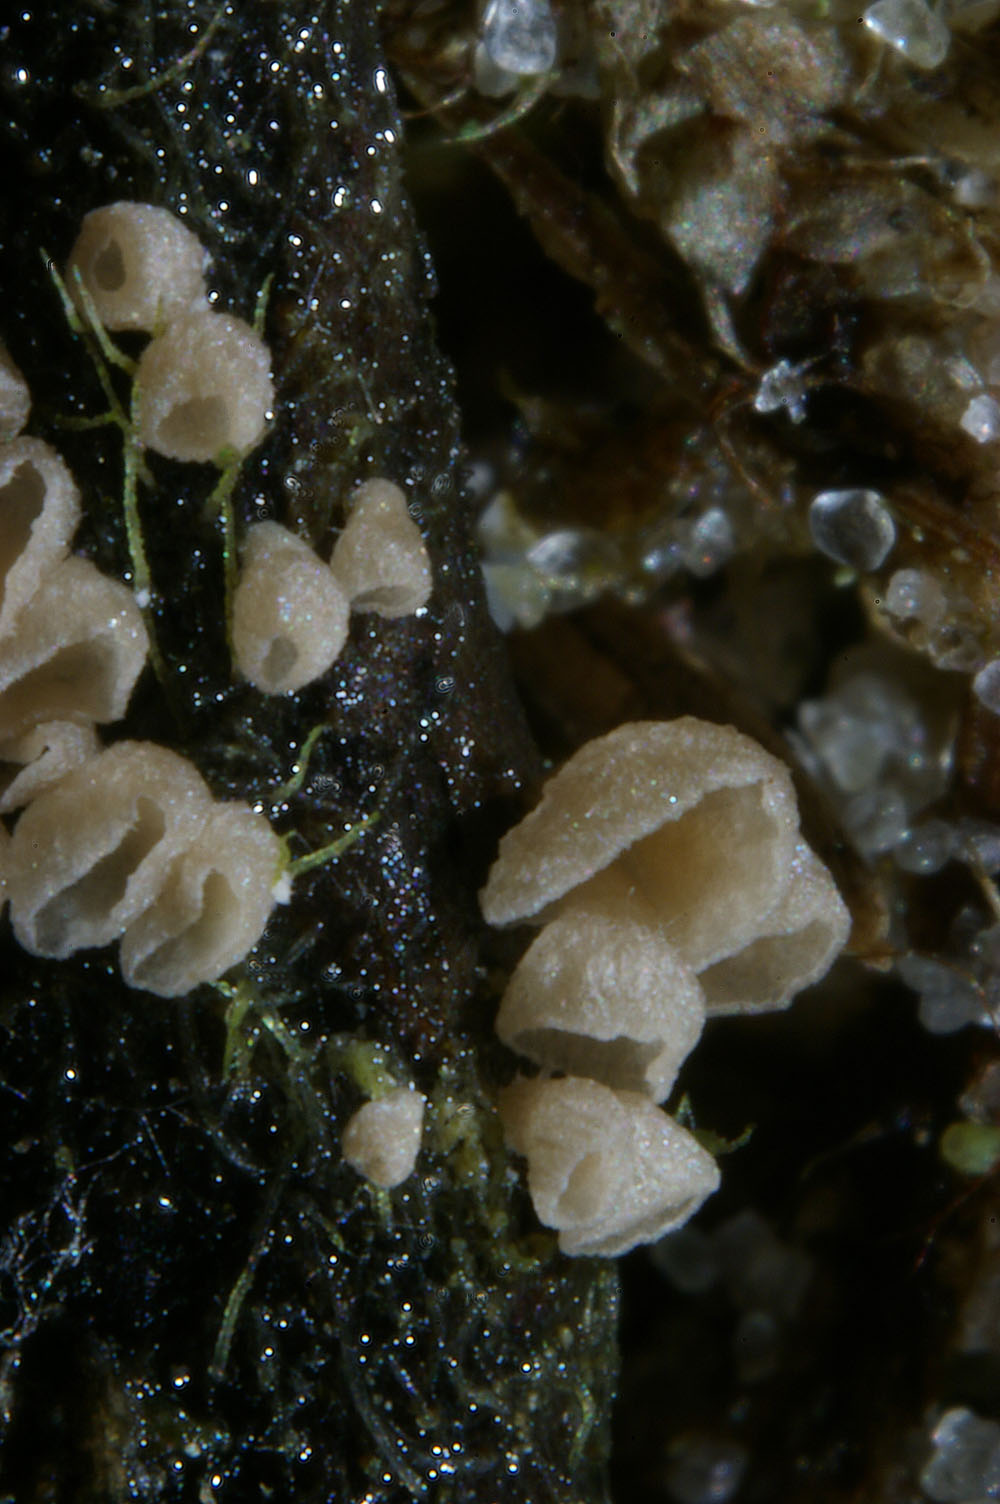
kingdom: Fungi
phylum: Basidiomycota
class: Agaricomycetes
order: Agaricales
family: Hygrophoraceae
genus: Arrhenia
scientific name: Arrhenia retiruga
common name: lille fontænehat
